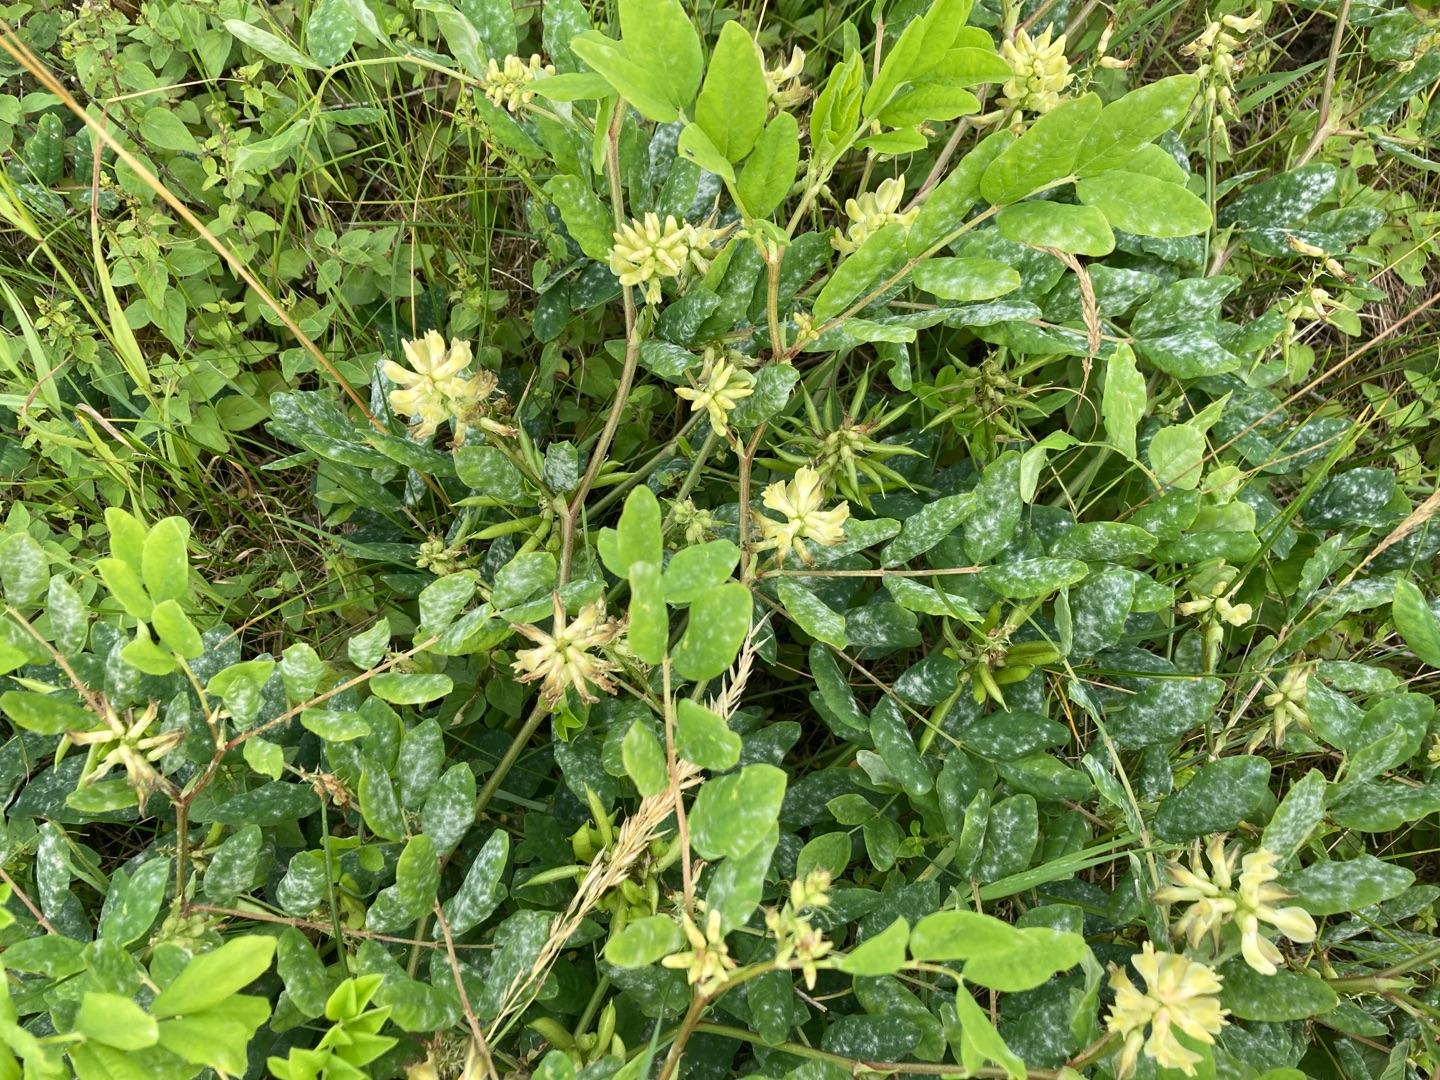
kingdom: Plantae
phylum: Tracheophyta
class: Magnoliopsida
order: Fabales
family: Fabaceae
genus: Astragalus
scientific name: Astragalus glycyphyllos
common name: Sød astragel
